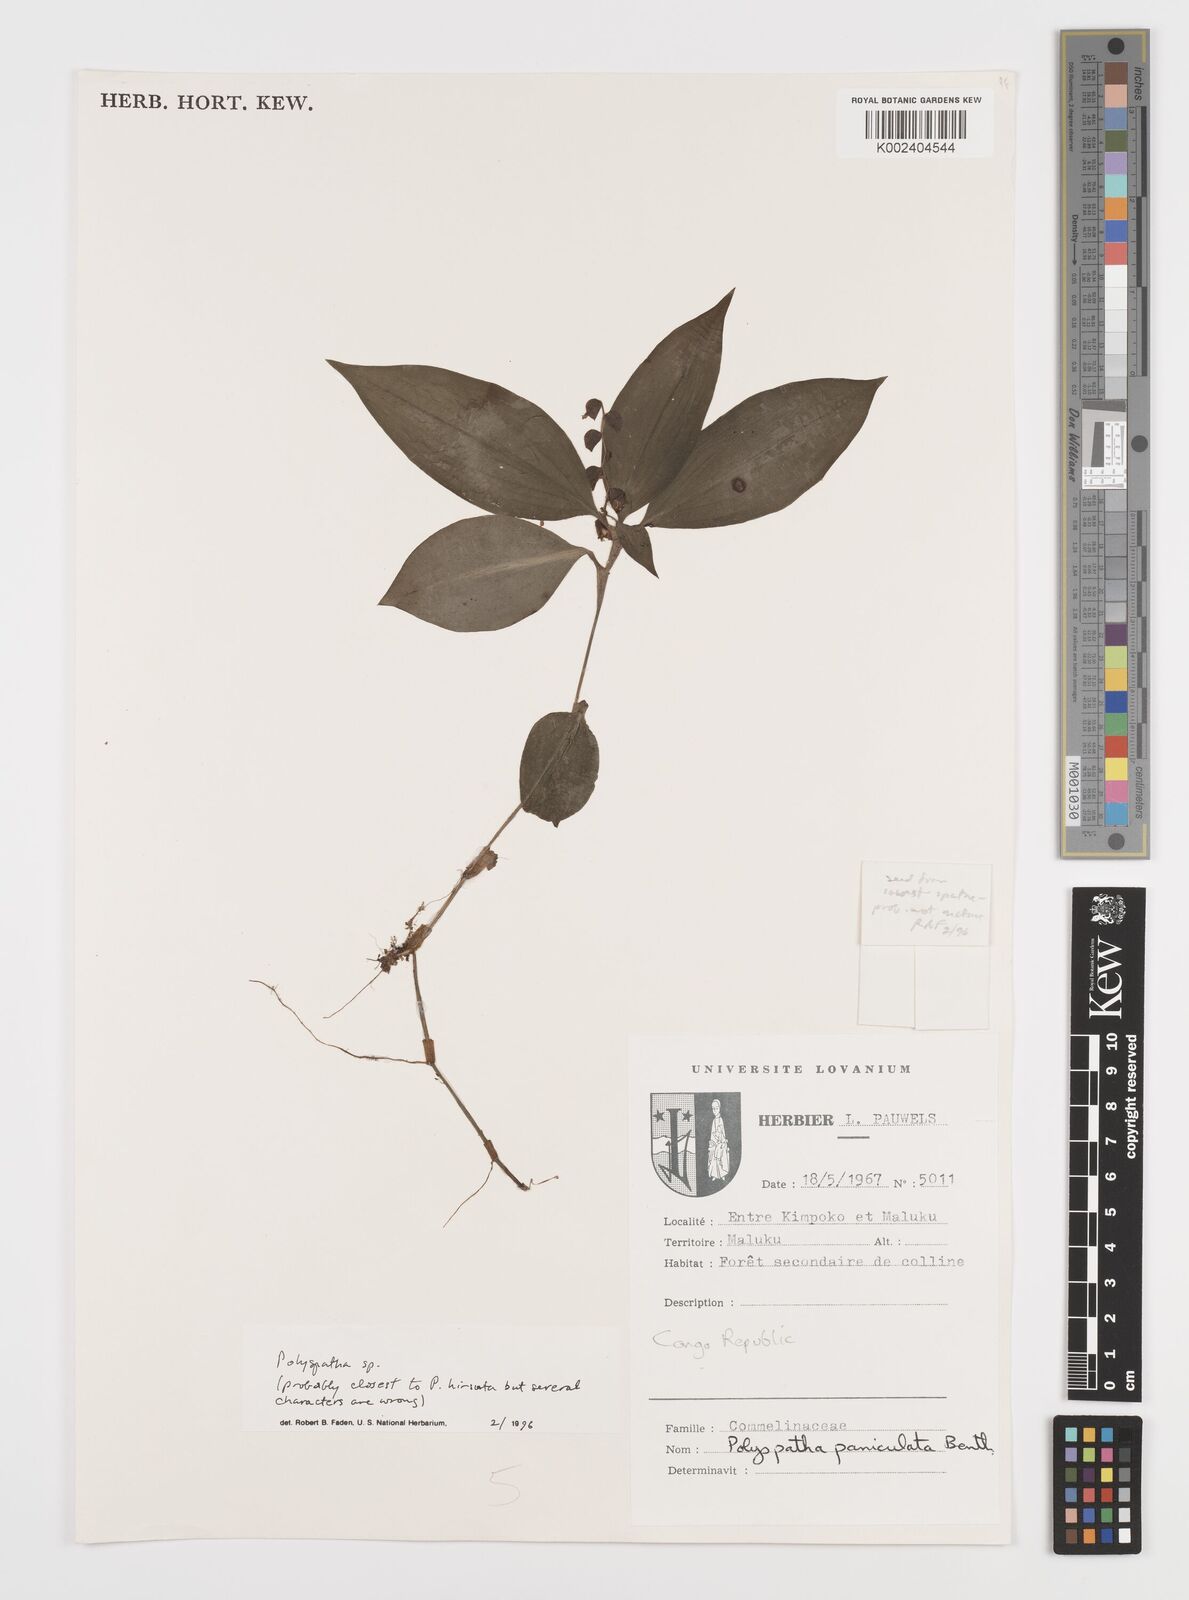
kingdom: Plantae
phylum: Tracheophyta
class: Liliopsida
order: Commelinales
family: Commelinaceae
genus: Polyspatha
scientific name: Polyspatha
